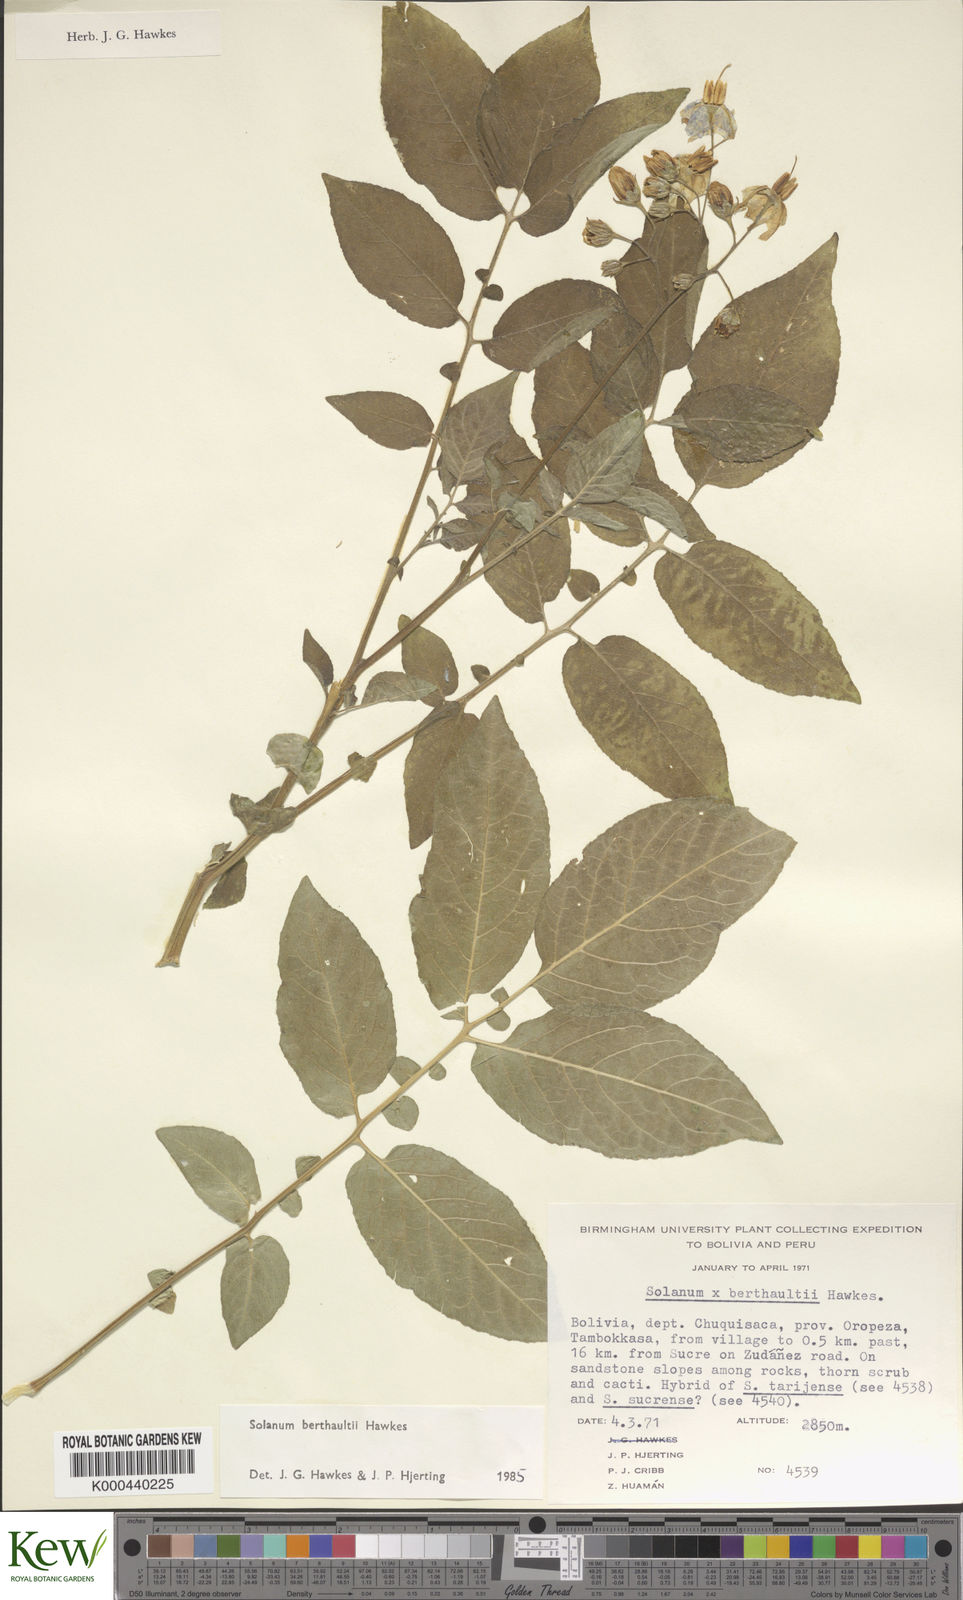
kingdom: Plantae
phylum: Tracheophyta
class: Magnoliopsida
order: Solanales
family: Solanaceae
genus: Solanum
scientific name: Solanum berthaultii
